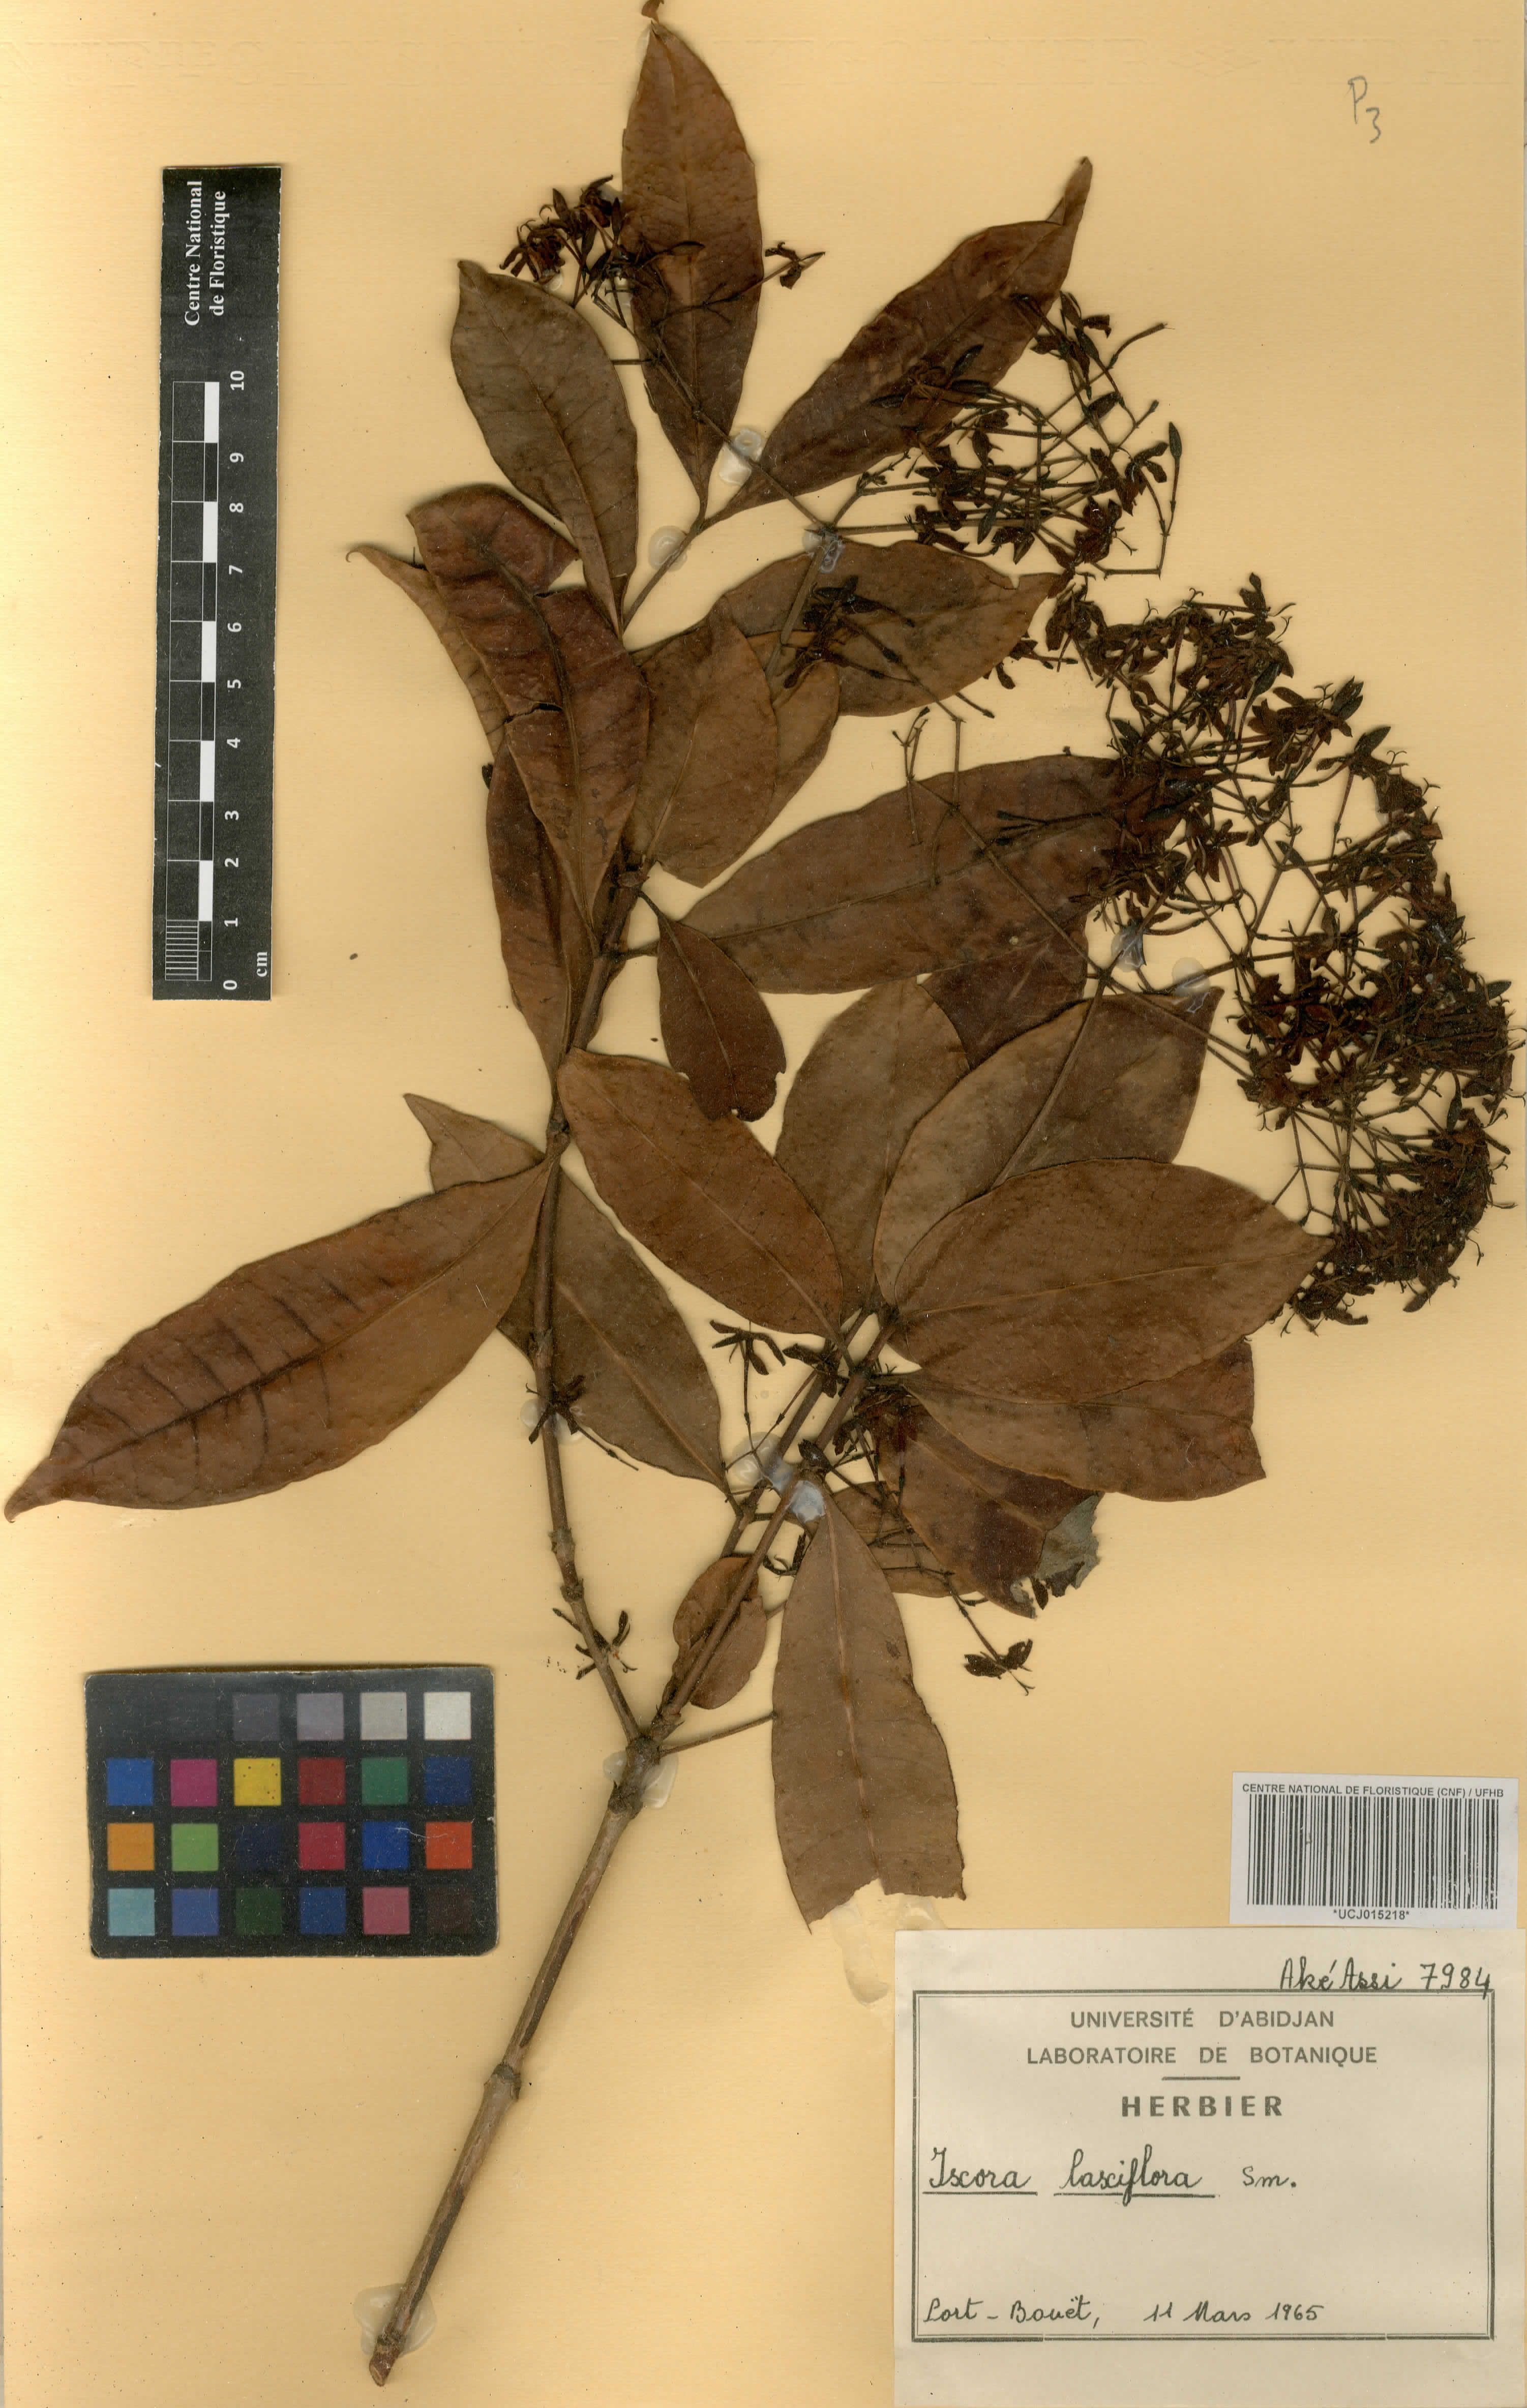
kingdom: Plantae
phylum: Tracheophyta
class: Magnoliopsida
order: Gentianales
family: Rubiaceae
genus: Ixora
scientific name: Ixora laxiflora
